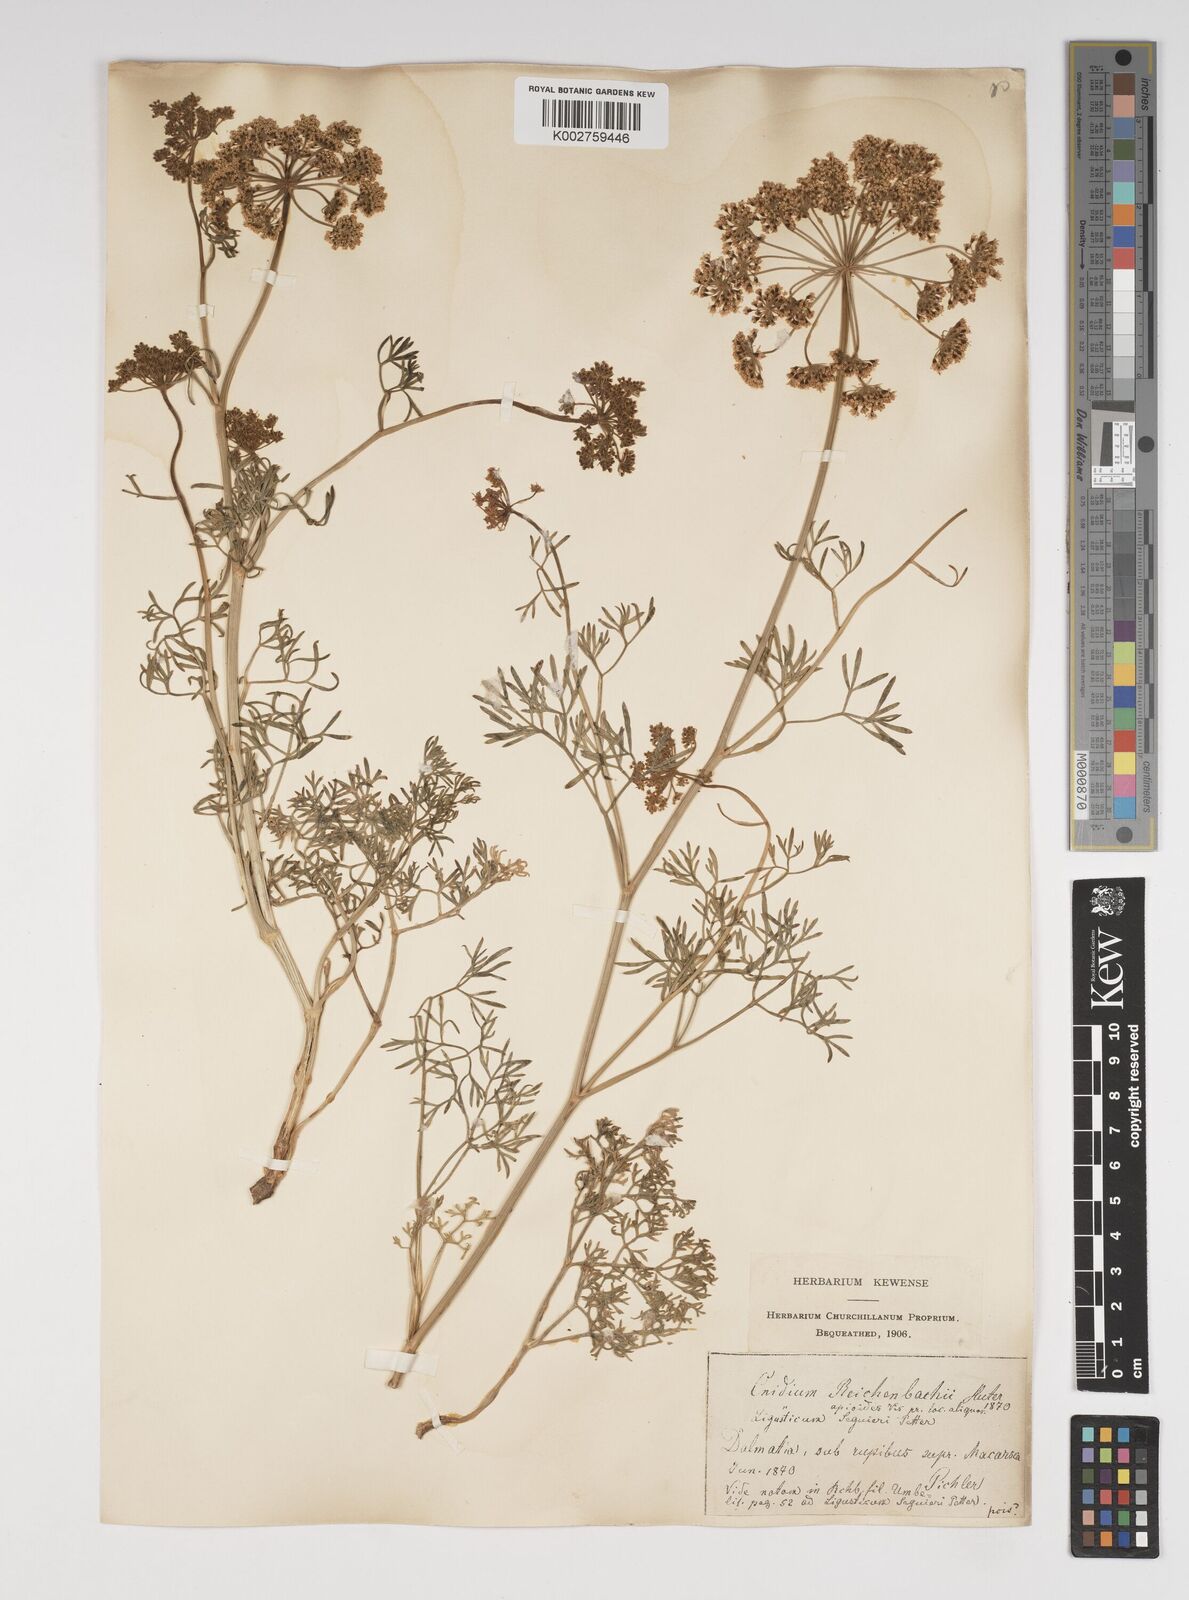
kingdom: Plantae
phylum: Tracheophyta
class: Magnoliopsida
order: Apiales
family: Apiaceae
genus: Selinum
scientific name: Selinum
